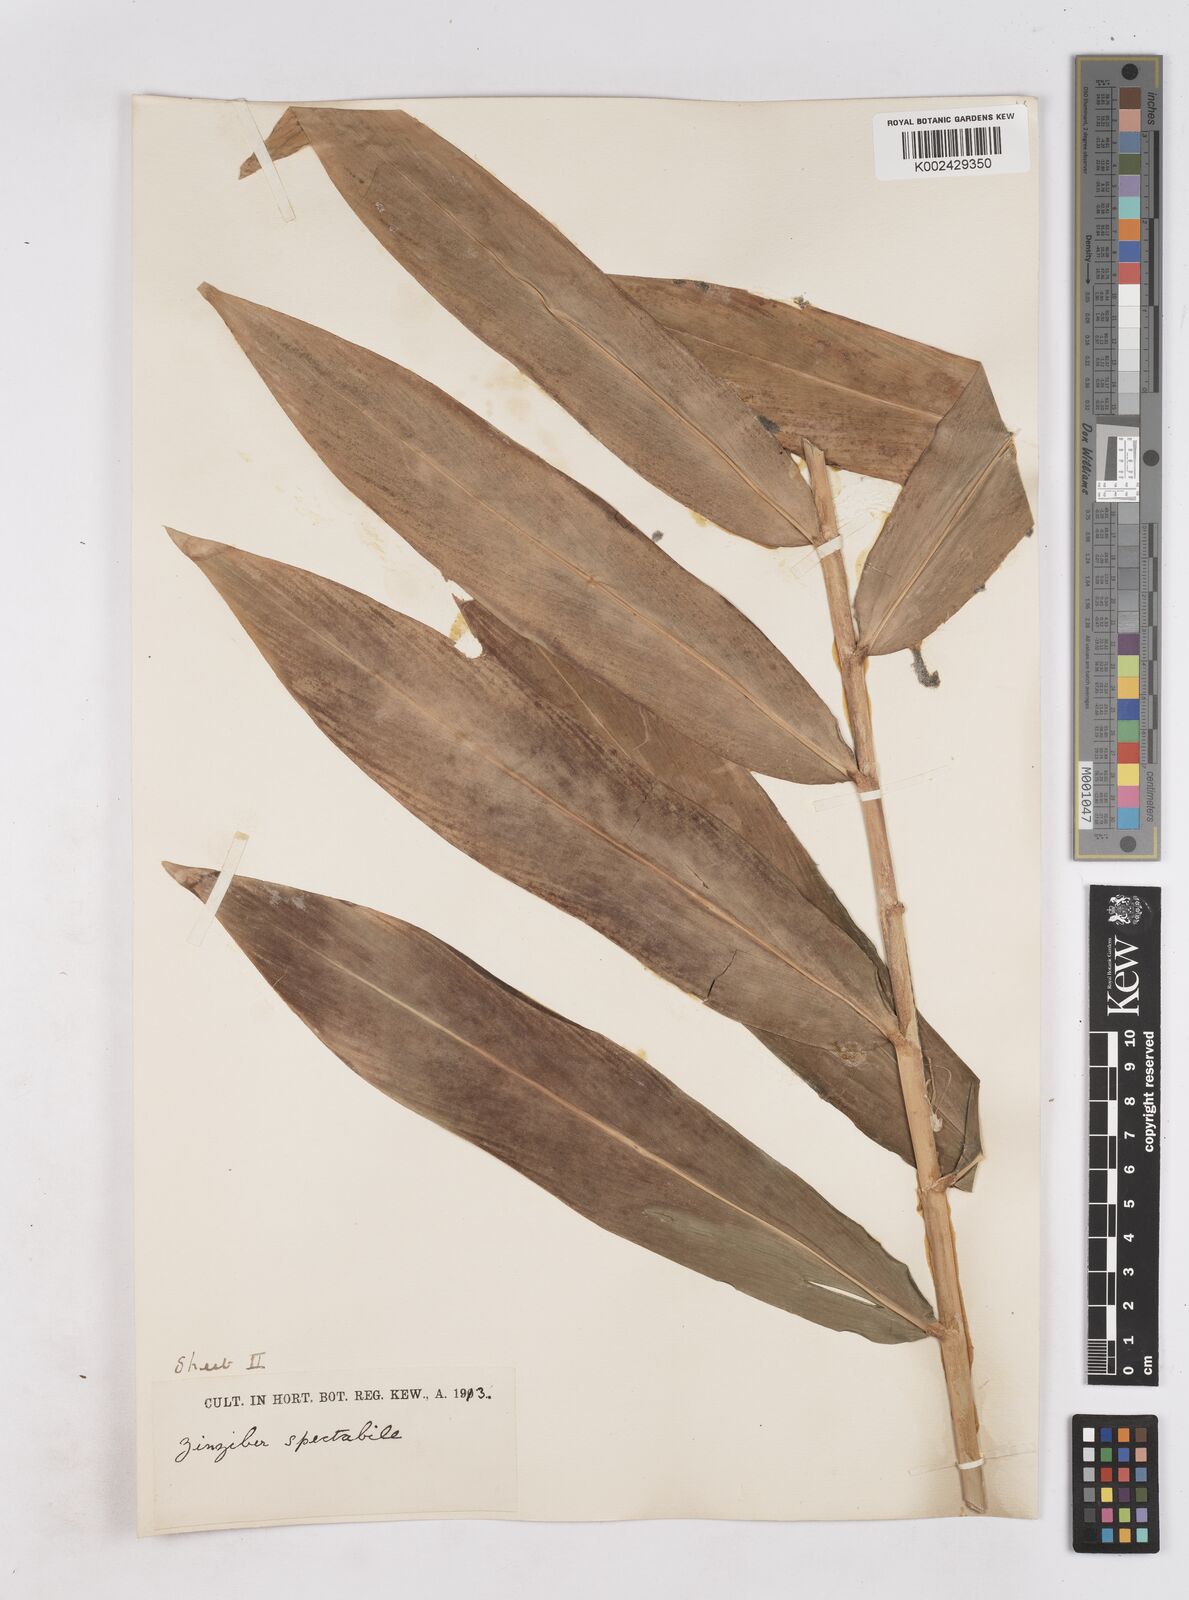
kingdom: Plantae
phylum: Tracheophyta
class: Liliopsida
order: Zingiberales
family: Zingiberaceae
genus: Zingiber
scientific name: Zingiber spectabile
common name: Beehive ginger
